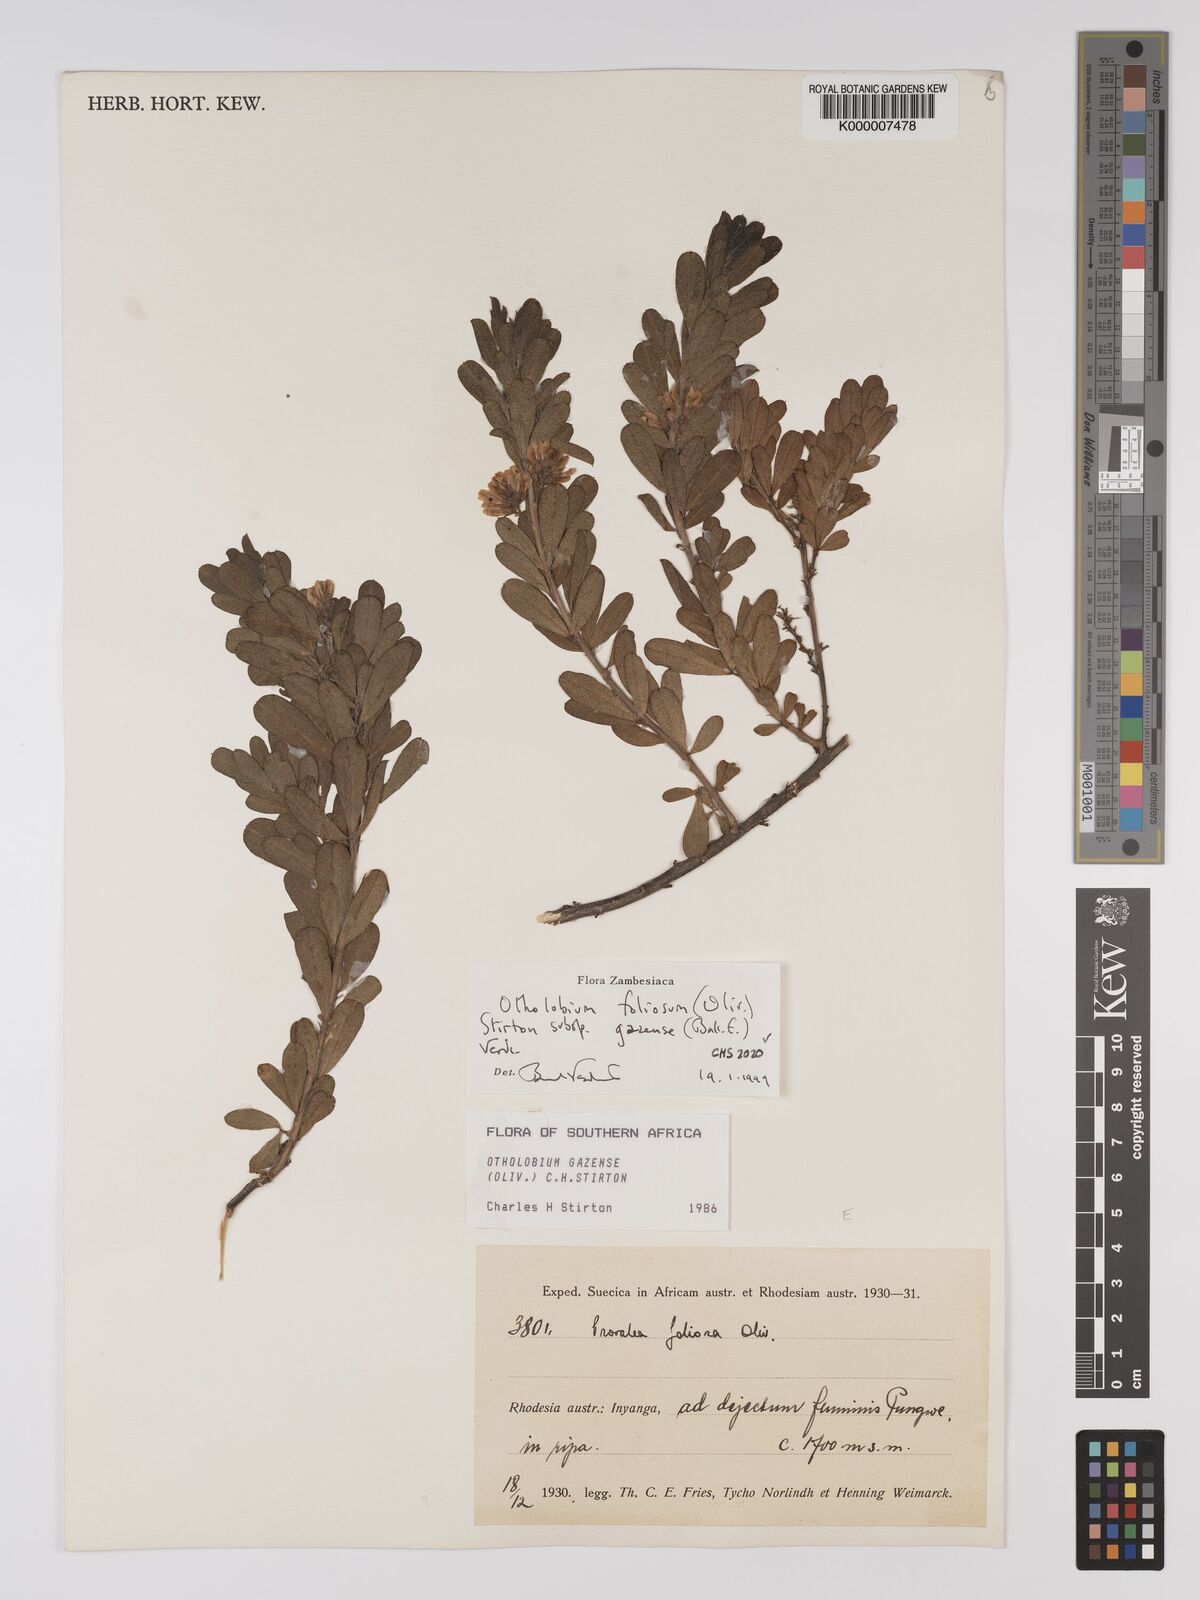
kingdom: Plantae
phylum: Tracheophyta
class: Magnoliopsida
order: Fabales
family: Fabaceae
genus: Psoralea
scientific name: Psoralea foliosa
